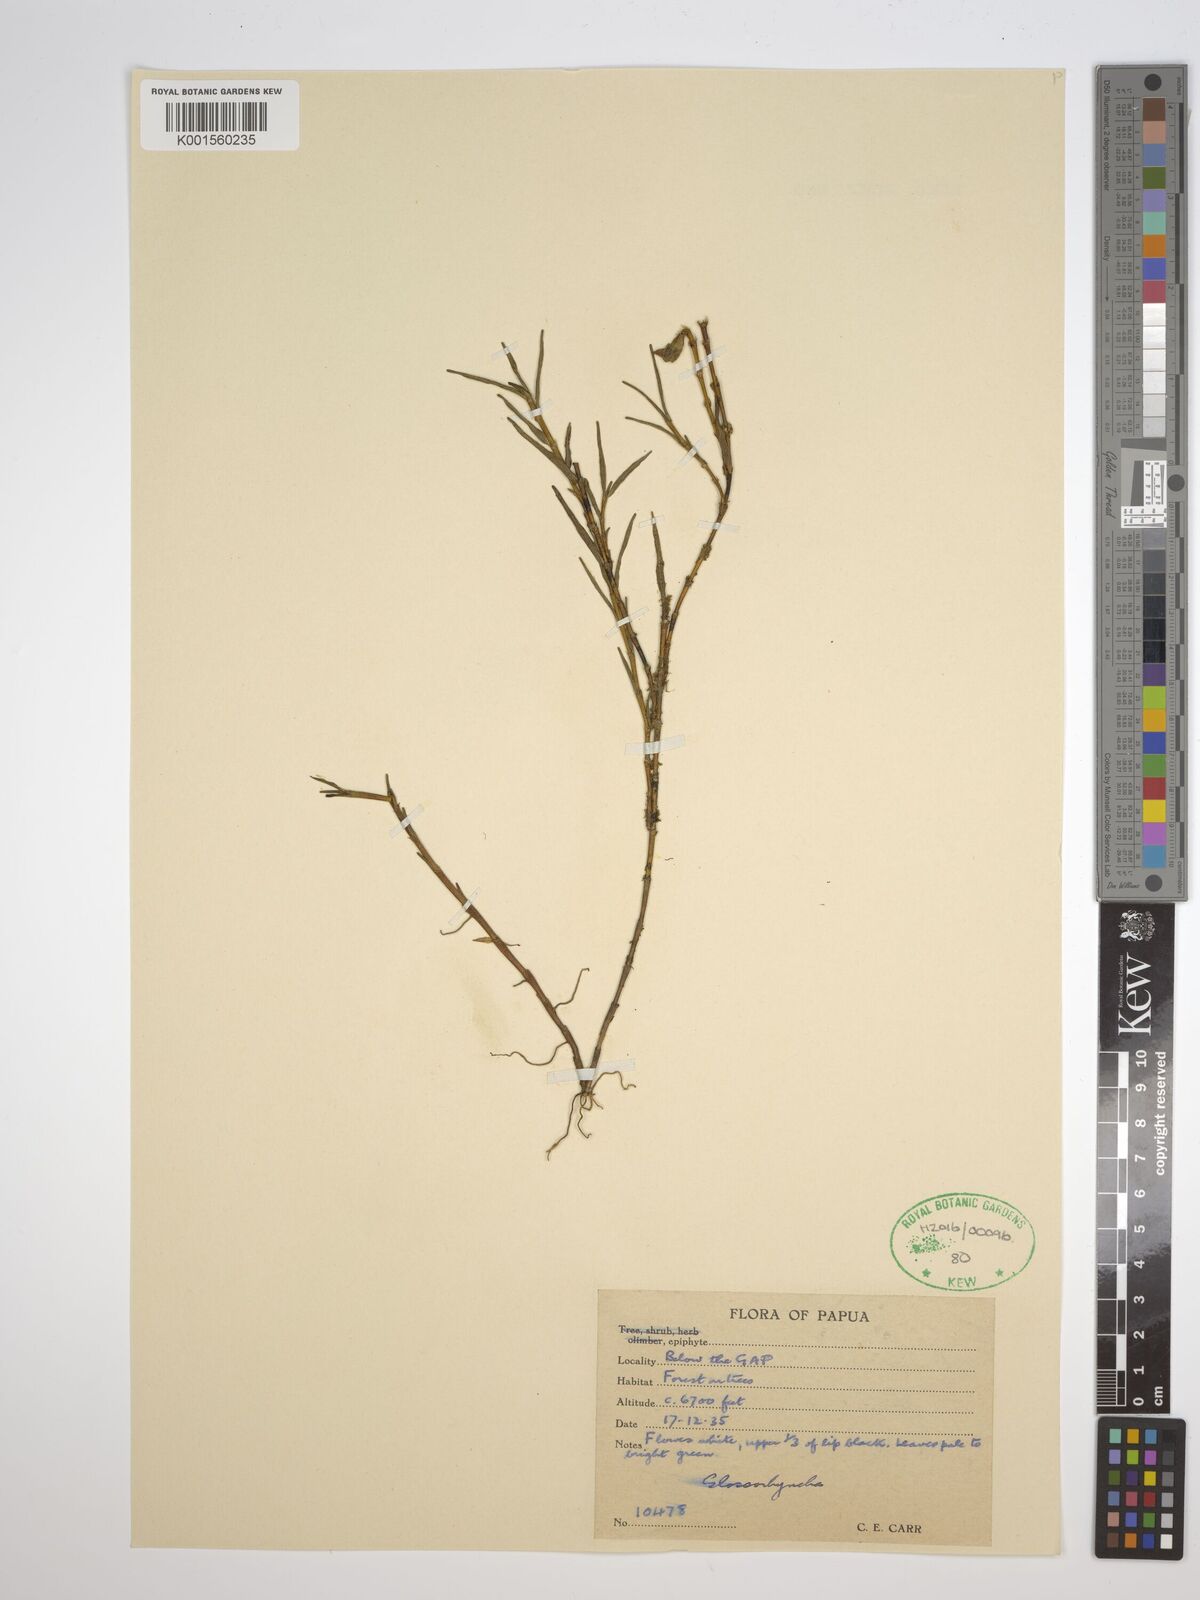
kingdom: Plantae
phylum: Tracheophyta
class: Liliopsida
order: Asparagales
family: Orchidaceae
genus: Glomera
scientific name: Glomera
